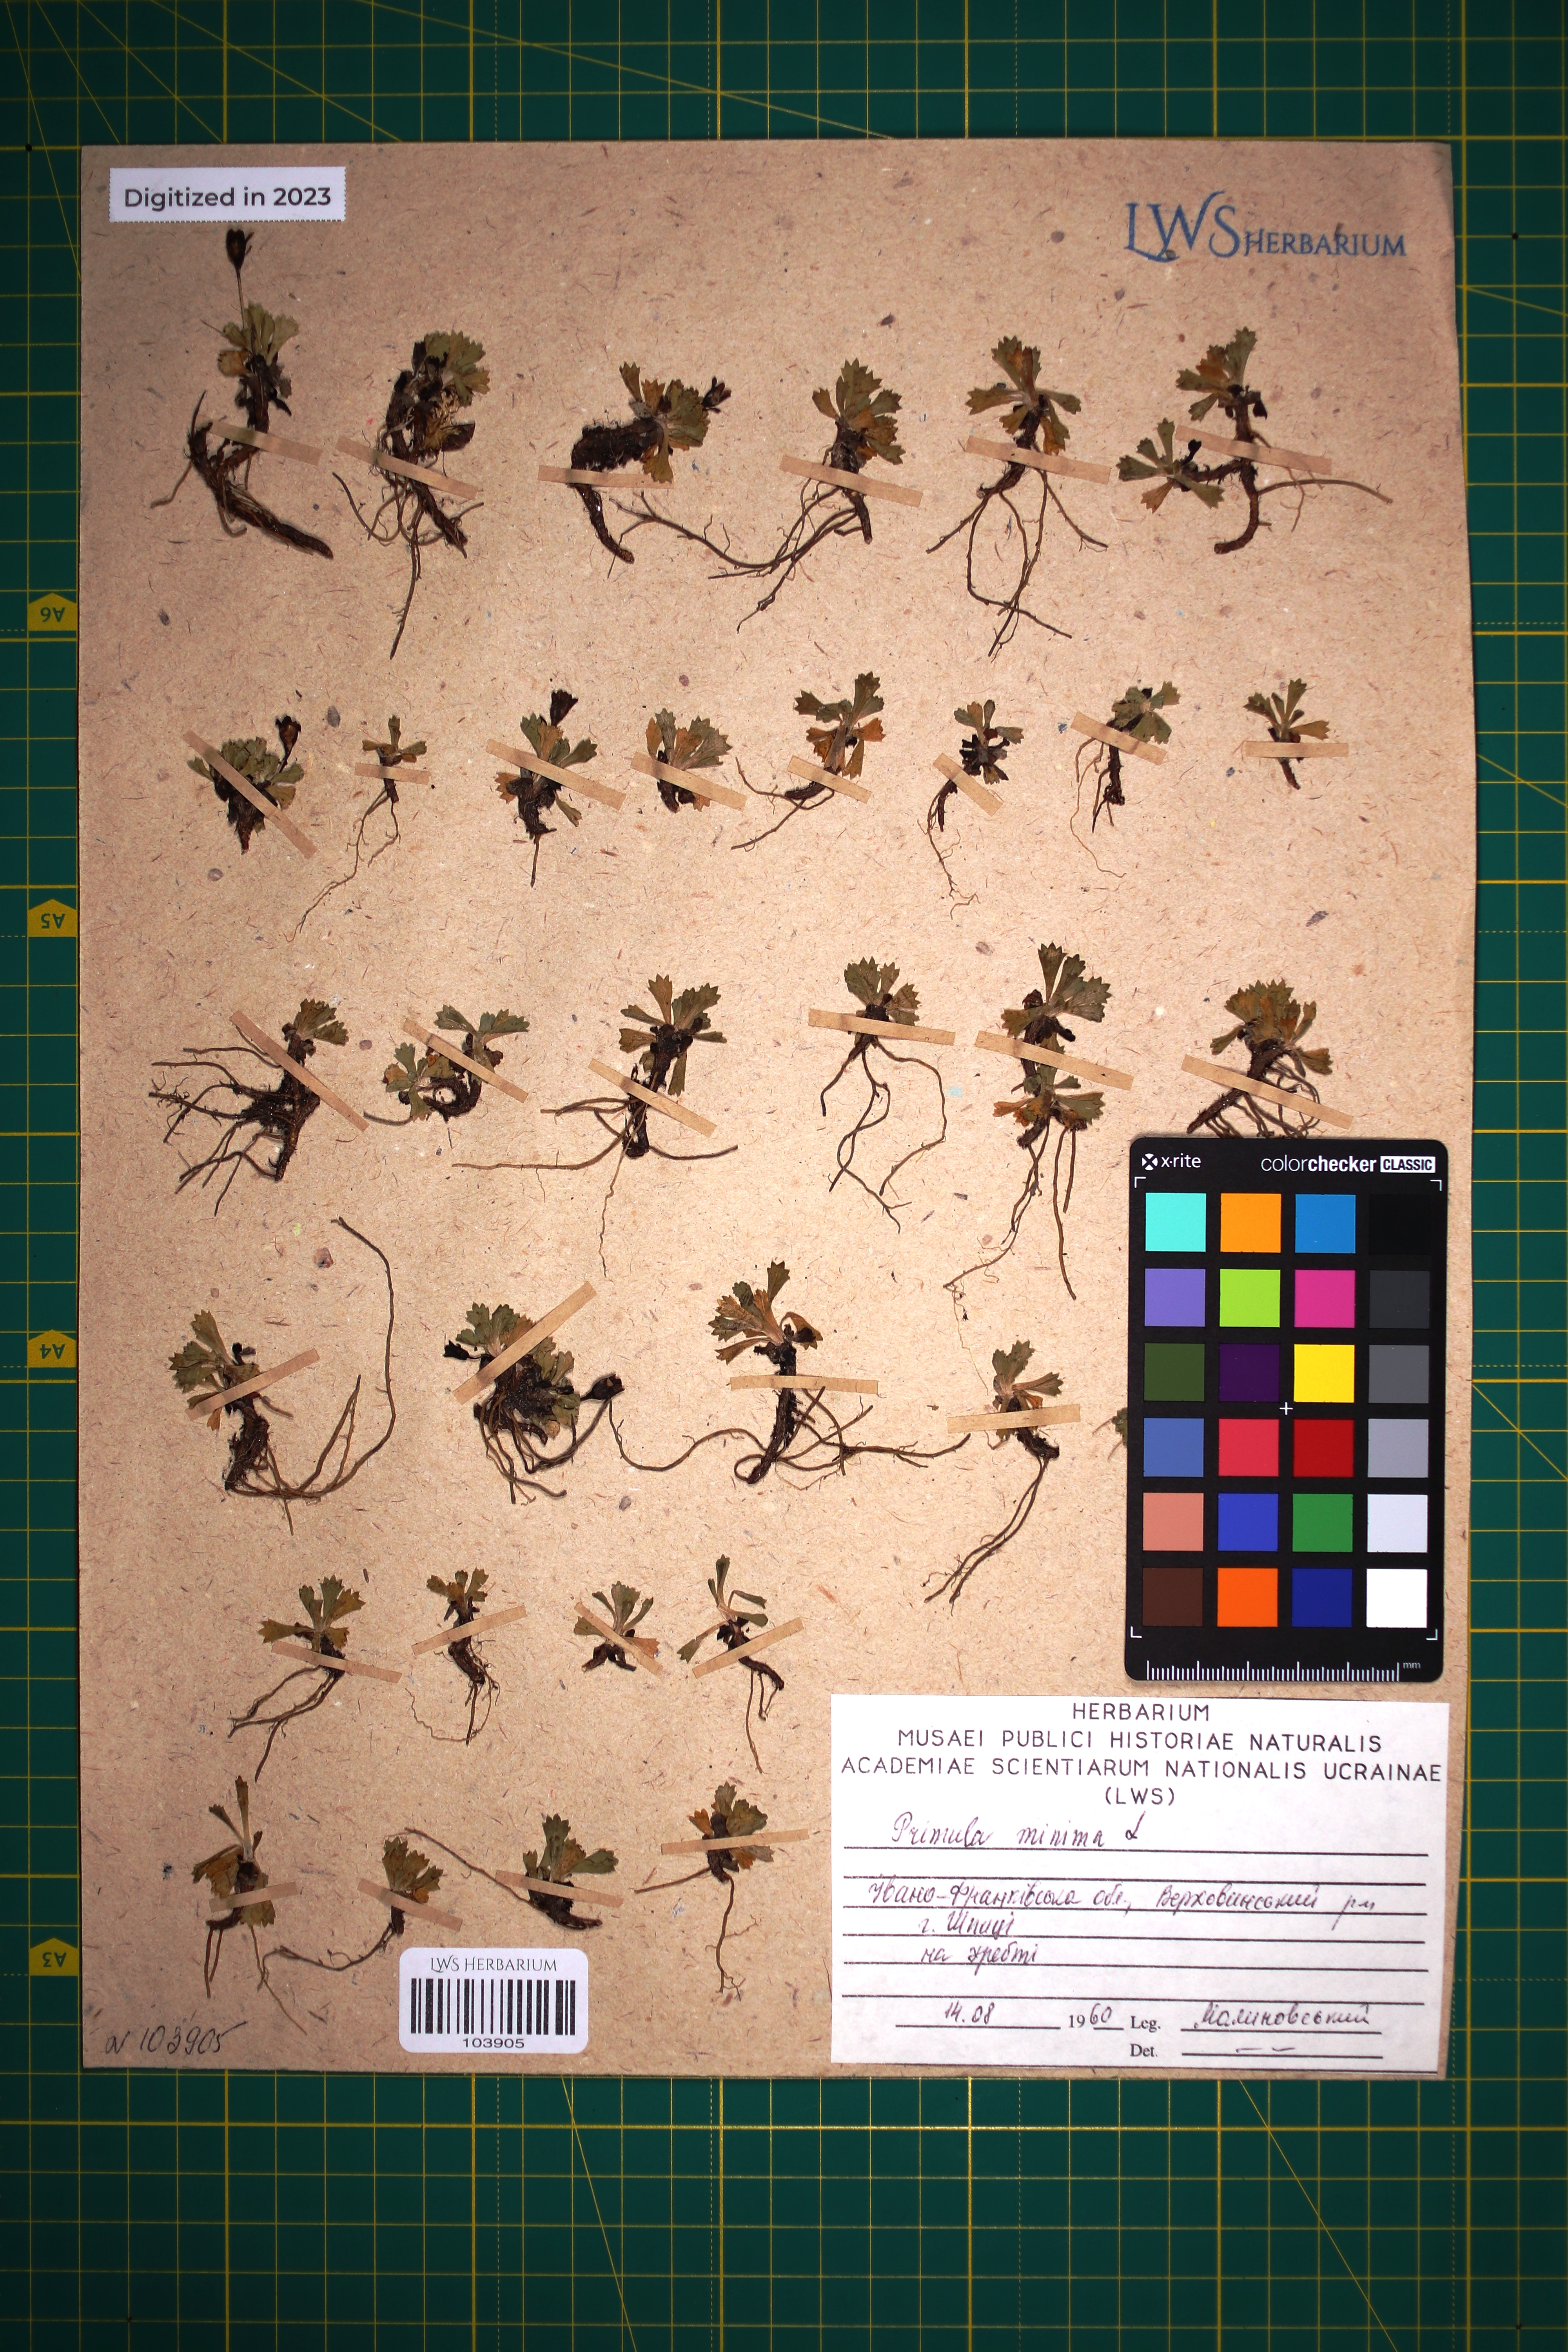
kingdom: Plantae
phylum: Tracheophyta
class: Magnoliopsida
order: Ericales
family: Primulaceae
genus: Primula
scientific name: Primula minima
